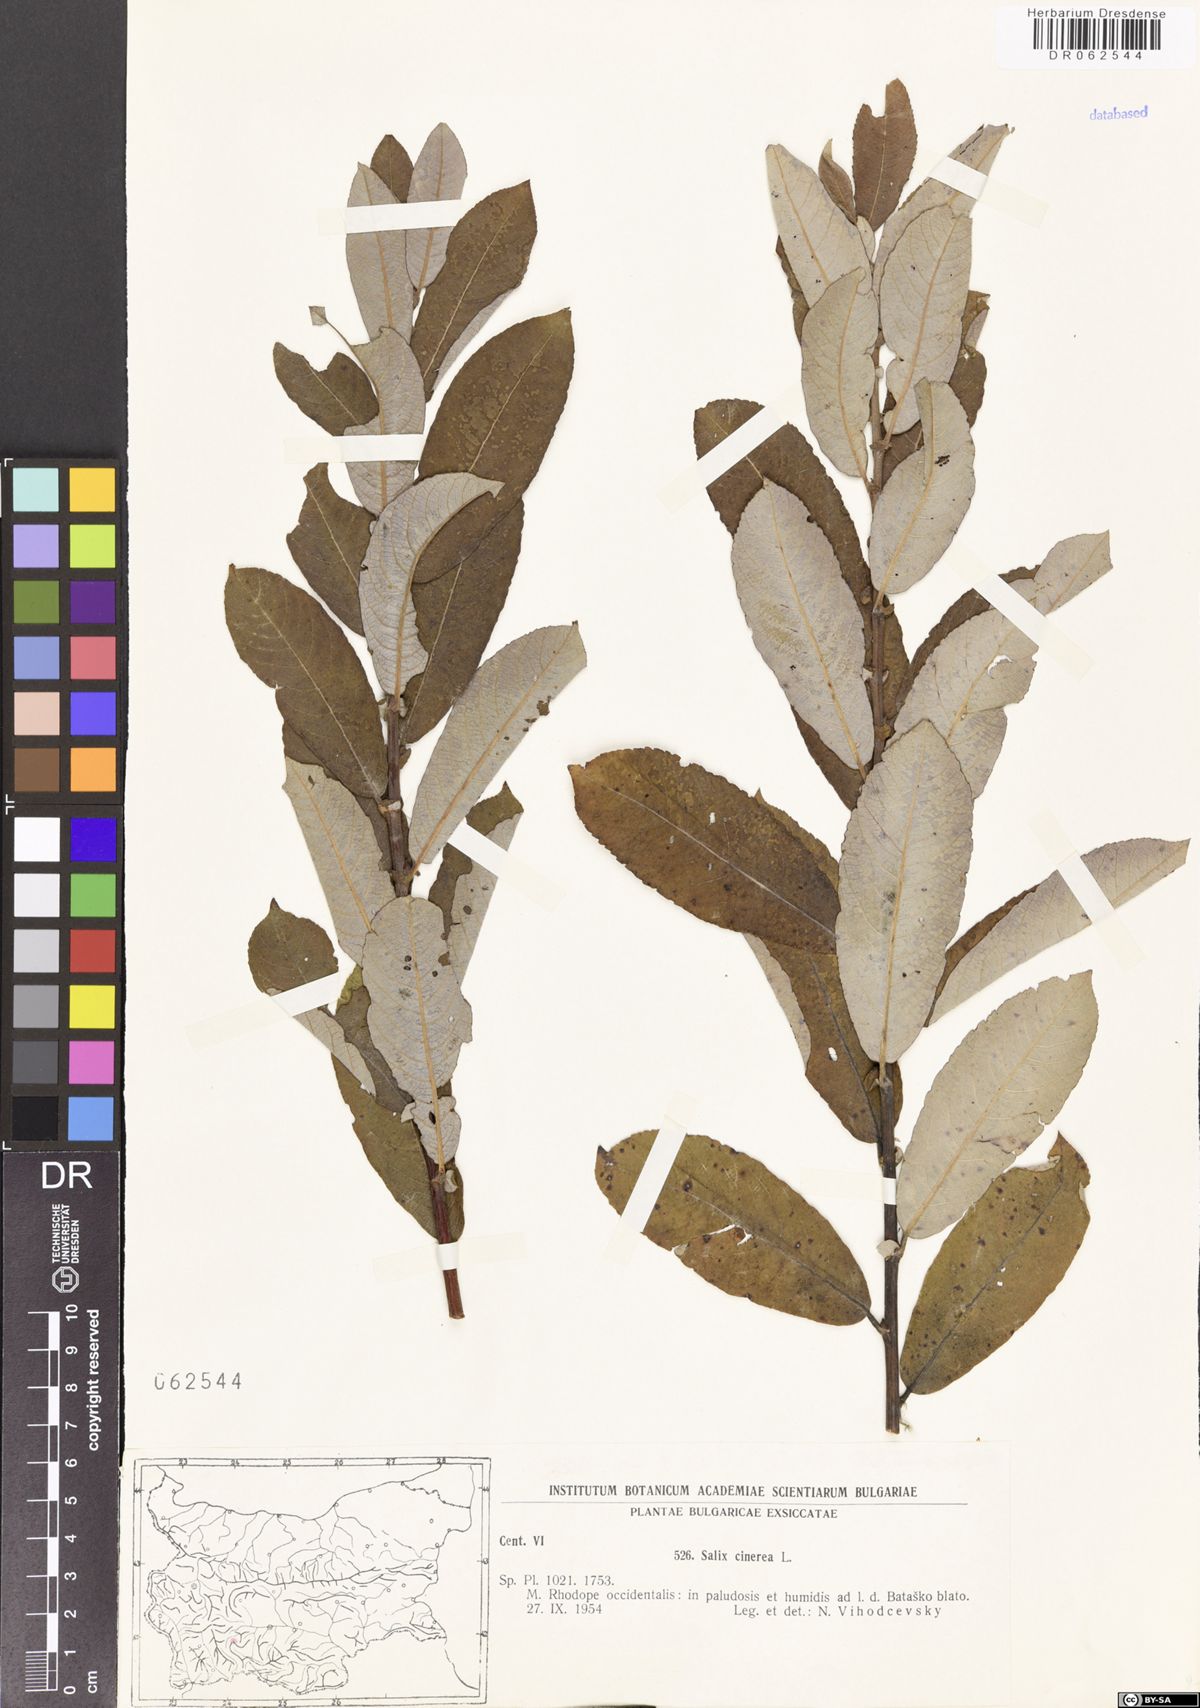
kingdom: Plantae
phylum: Tracheophyta
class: Magnoliopsida
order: Malpighiales
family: Salicaceae
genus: Salix
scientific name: Salix cinerea
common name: Common sallow
